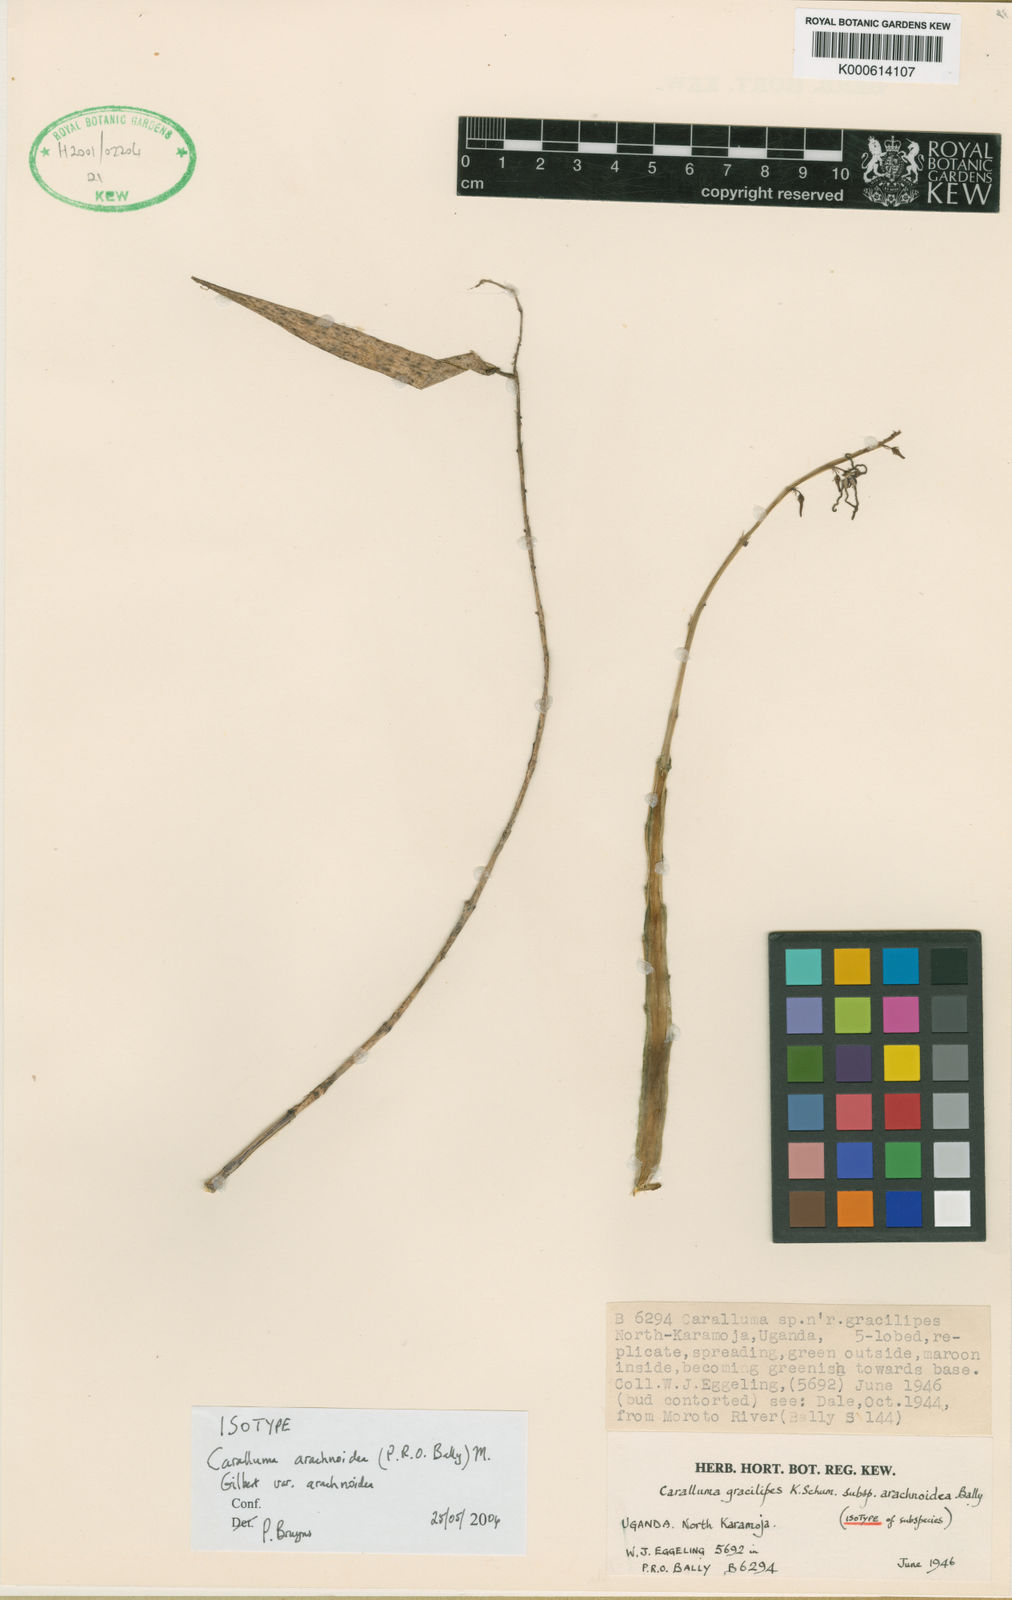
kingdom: Plantae
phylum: Tracheophyta
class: Magnoliopsida
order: Gentianales
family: Apocynaceae
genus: Ceropegia
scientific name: Ceropegia arachnoidea
